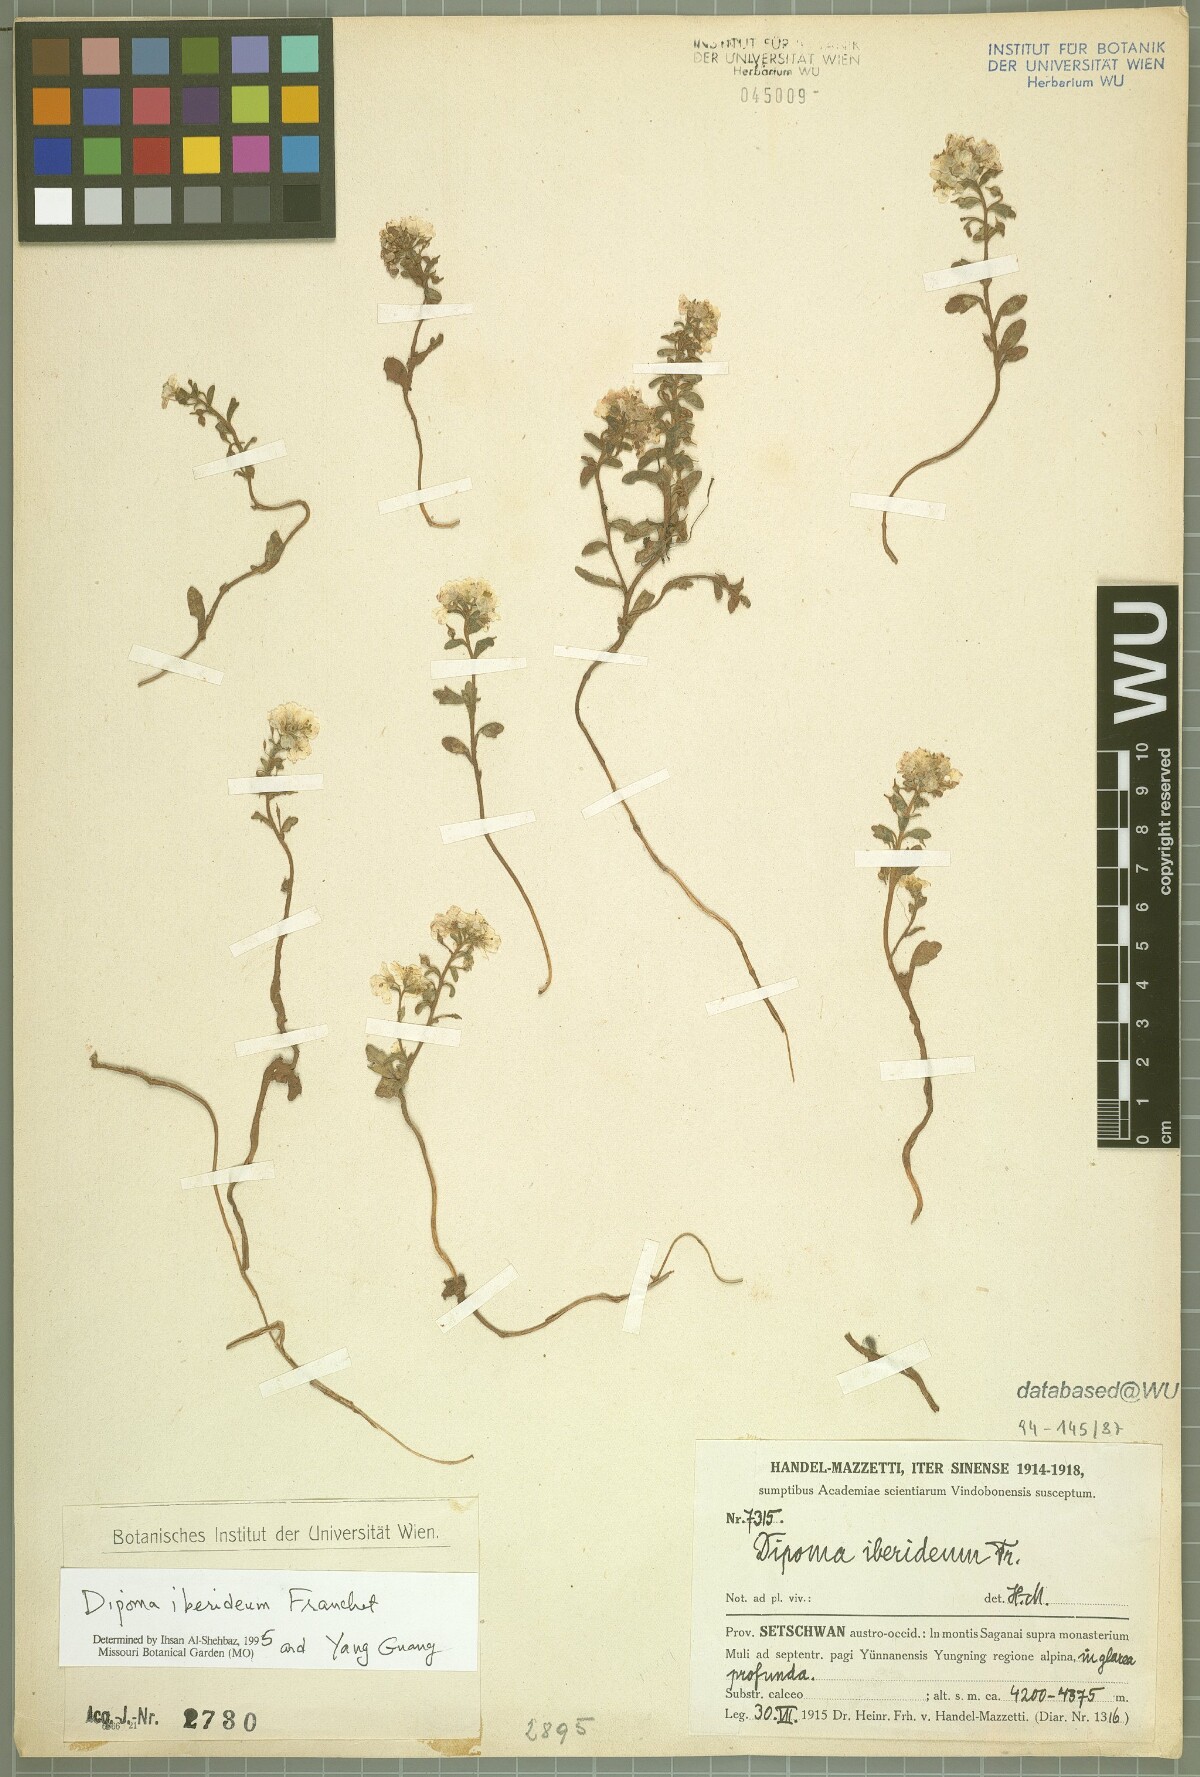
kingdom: Plantae
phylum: Tracheophyta
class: Magnoliopsida
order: Brassicales
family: Brassicaceae
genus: Dipoma
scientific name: Dipoma iberideum
